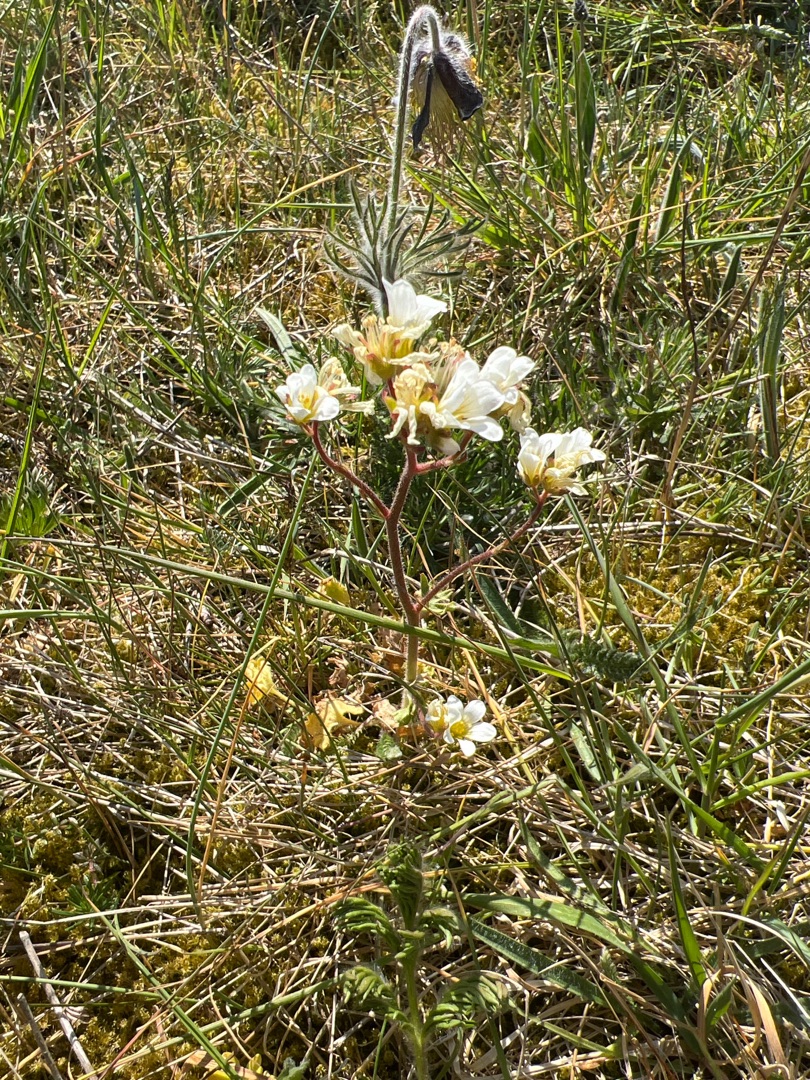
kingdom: Plantae
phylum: Tracheophyta
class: Magnoliopsida
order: Saxifragales
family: Saxifragaceae
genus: Saxifraga
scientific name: Saxifraga granulata
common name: Kornet stenbræk
